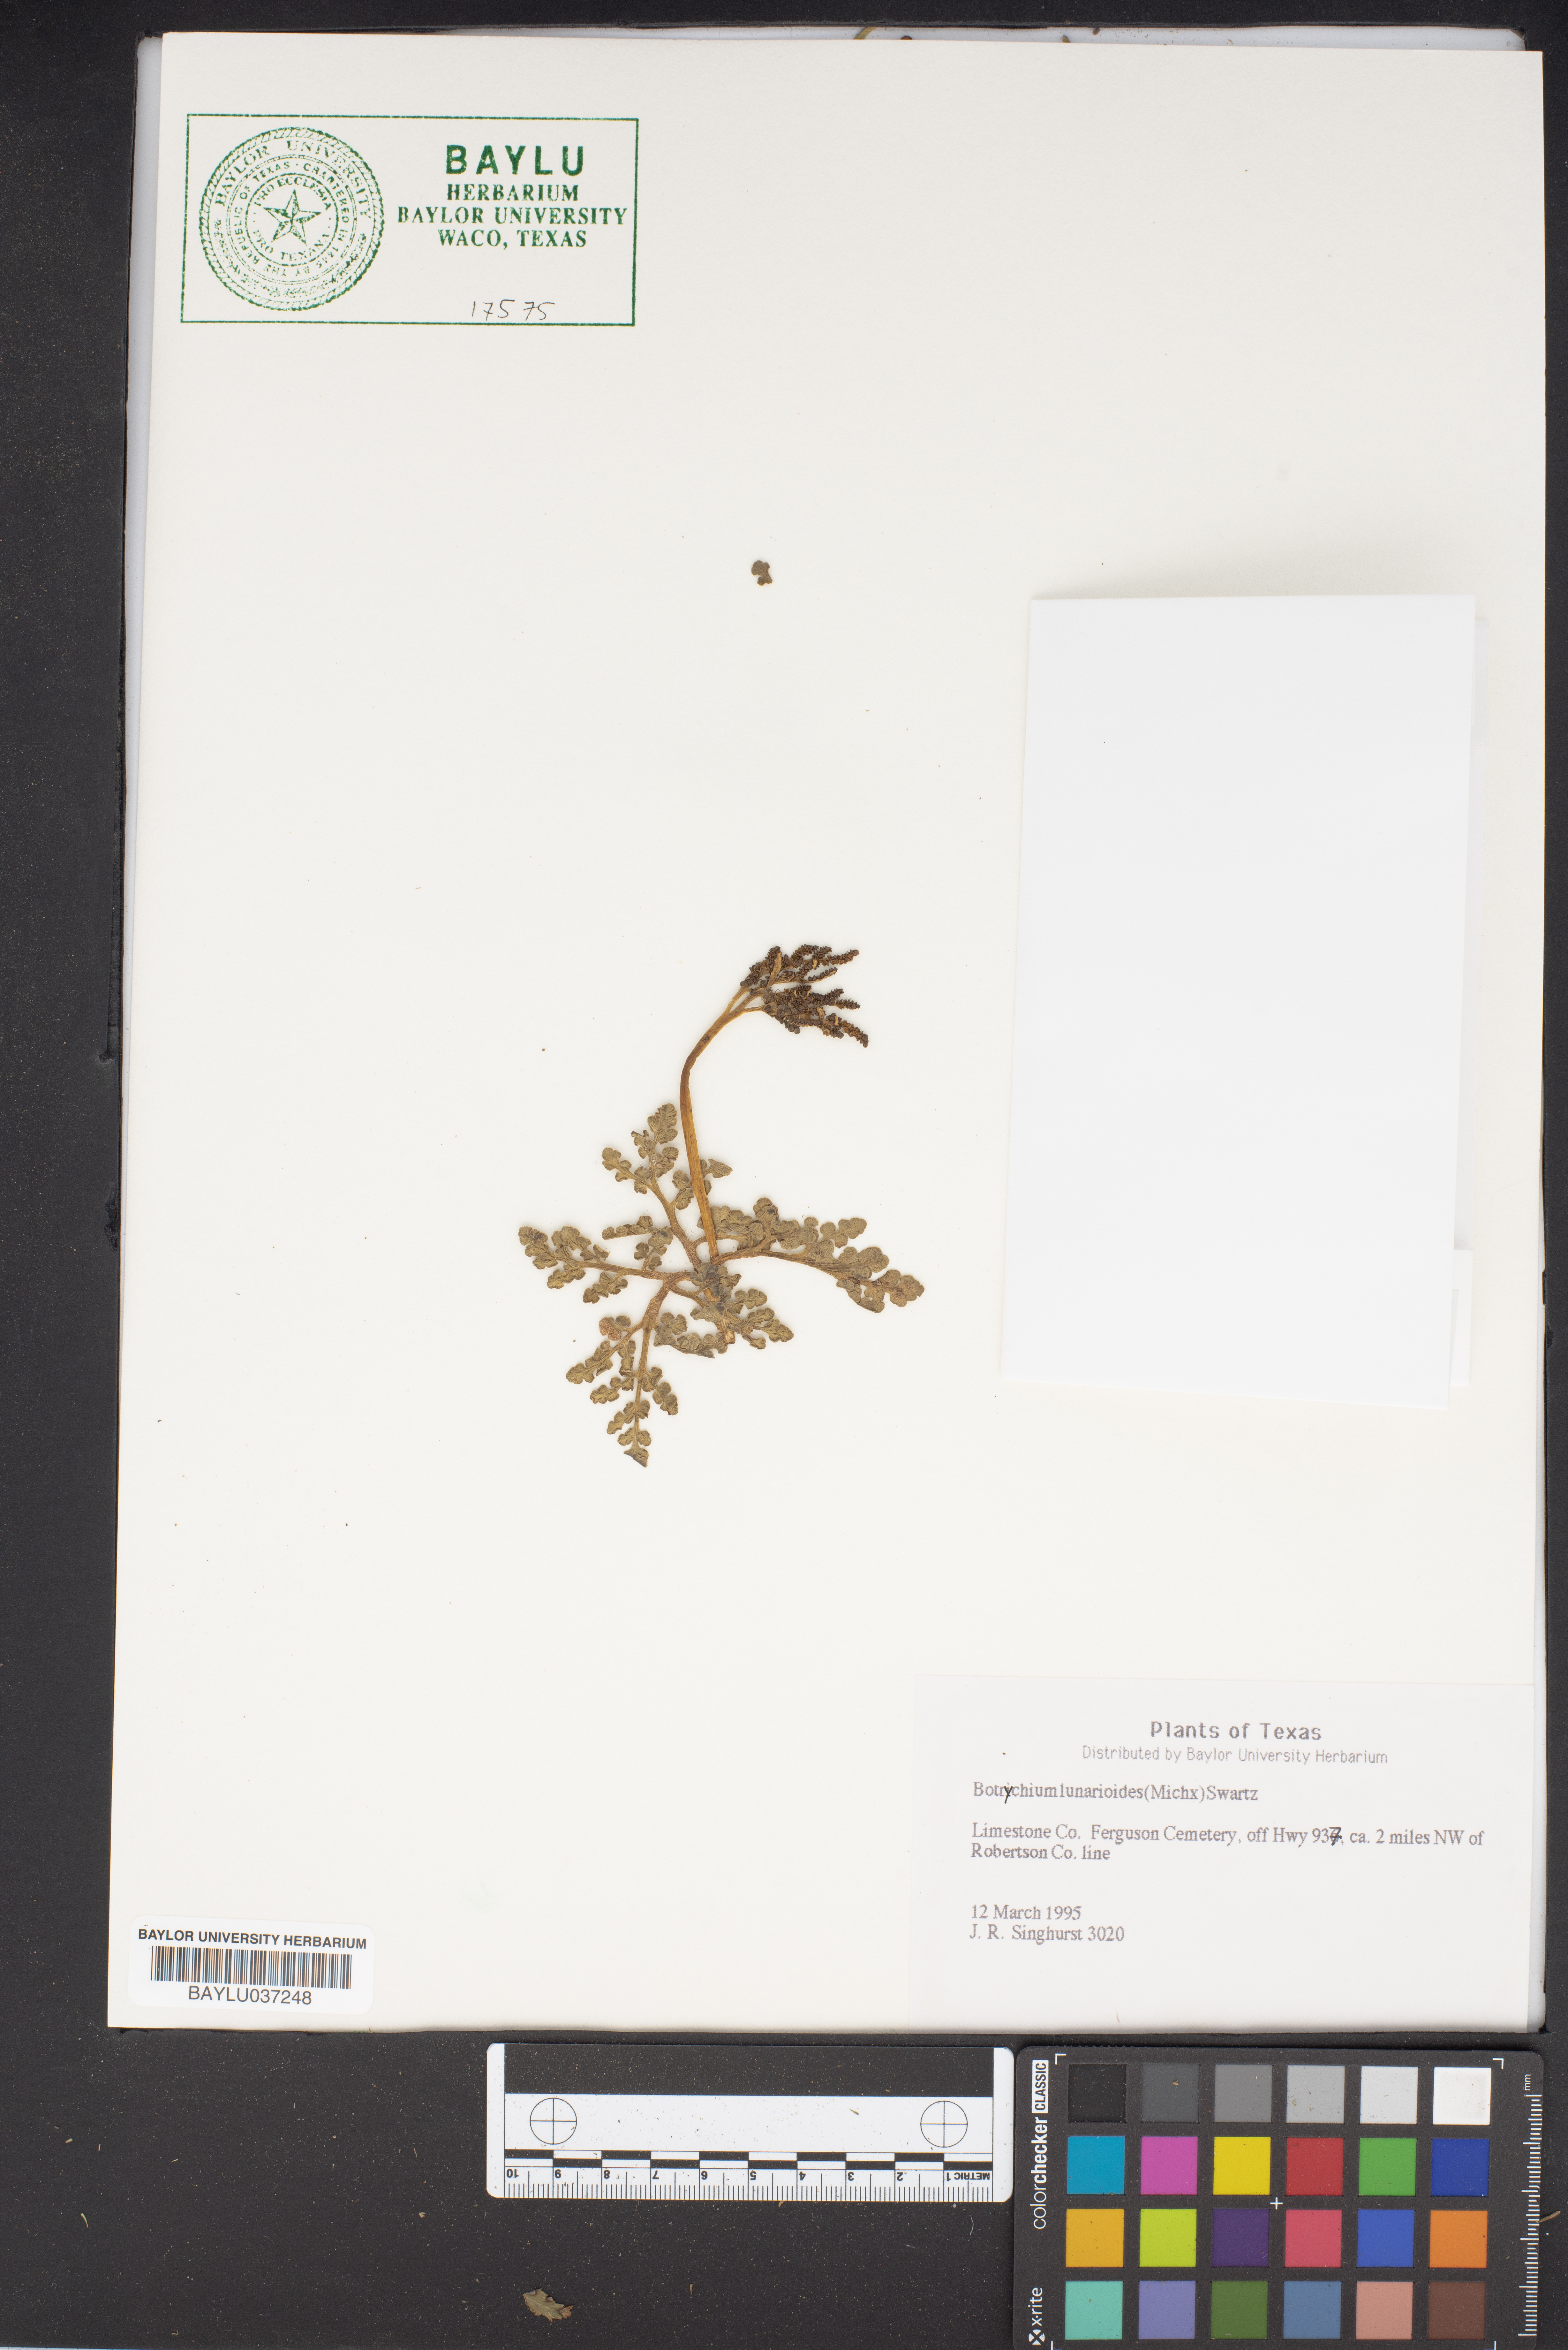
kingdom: Plantae
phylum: Tracheophyta
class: Polypodiopsida
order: Ophioglossales
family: Ophioglossaceae
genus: Sceptridium
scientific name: Sceptridium lunarioides
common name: Prostrate grapefern
